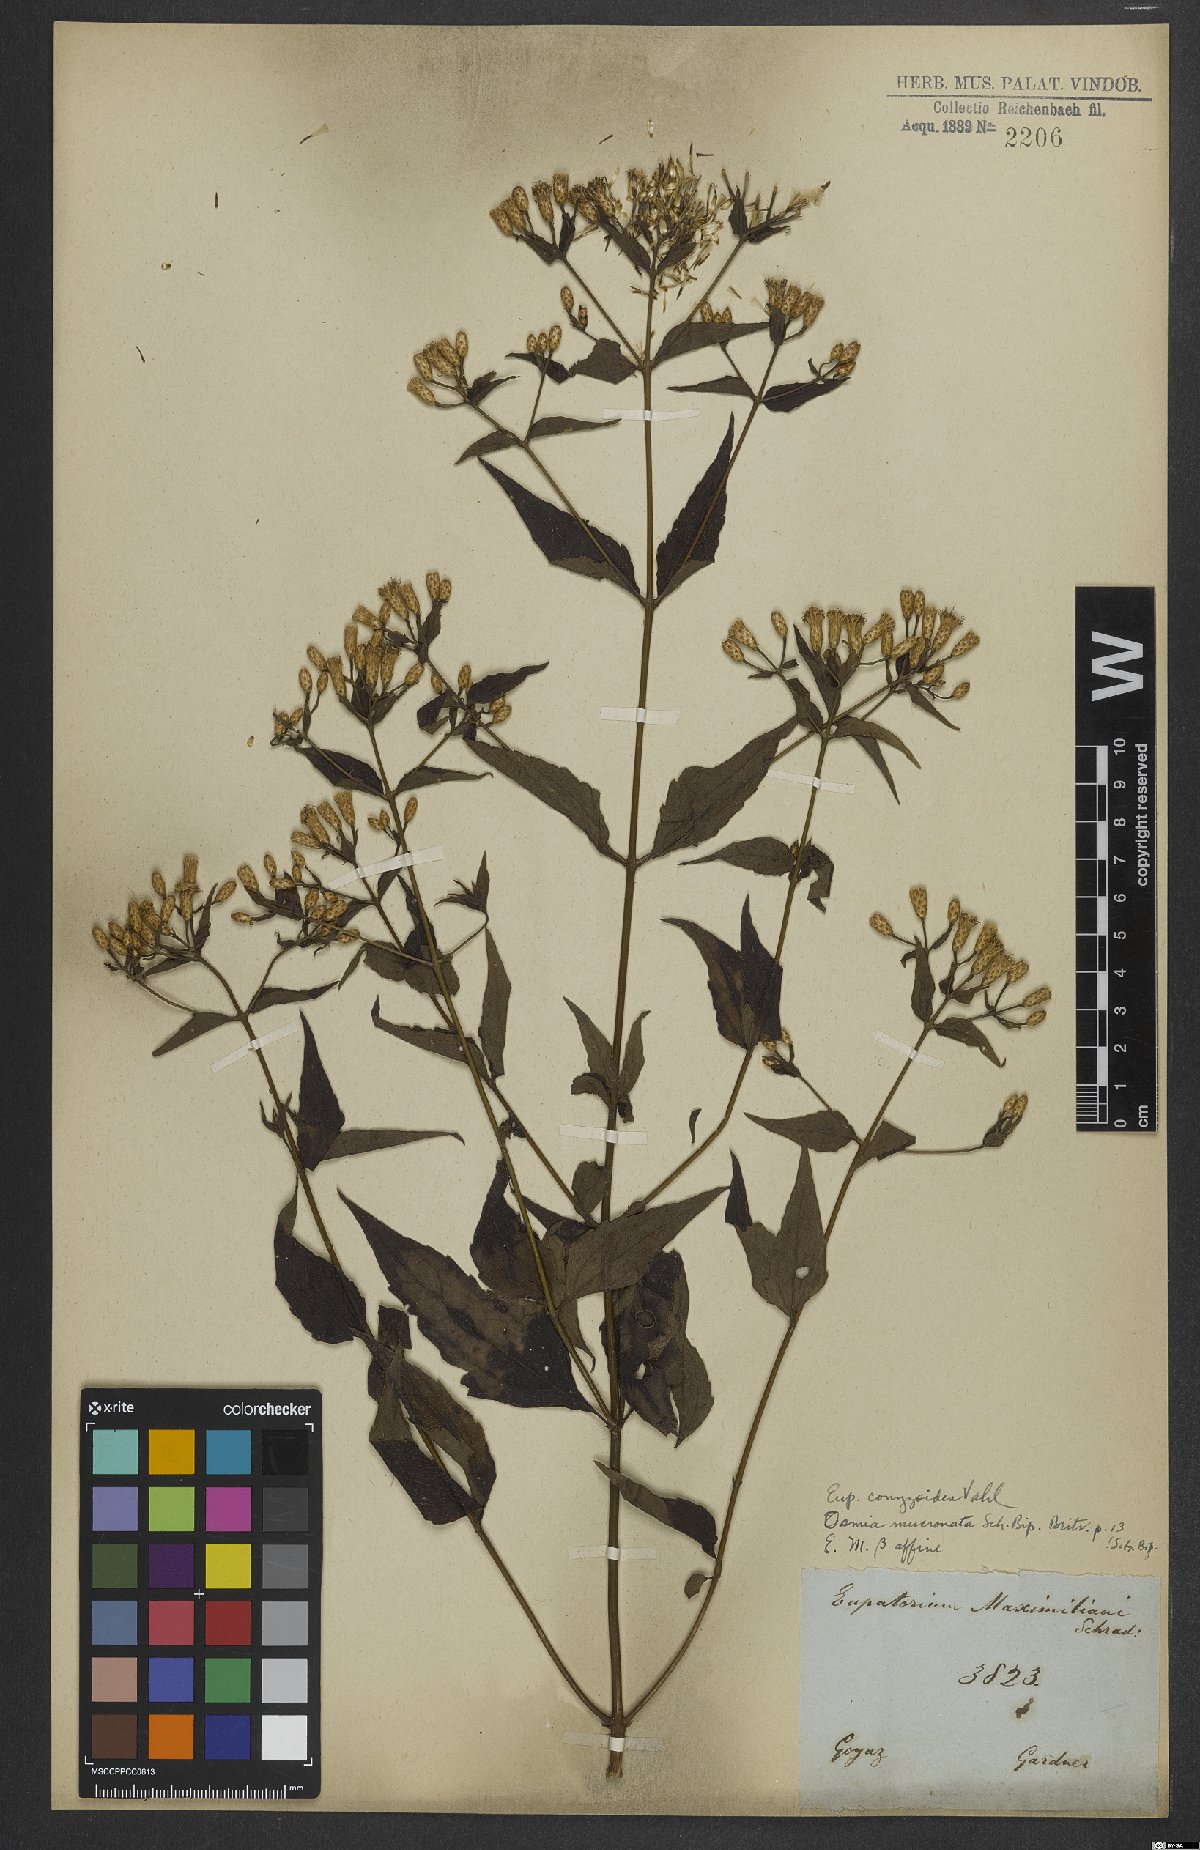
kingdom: Plantae
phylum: Tracheophyta
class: Magnoliopsida
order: Asterales
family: Asteraceae
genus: Chromolaena
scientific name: Chromolaena odorata
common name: Siamweed
